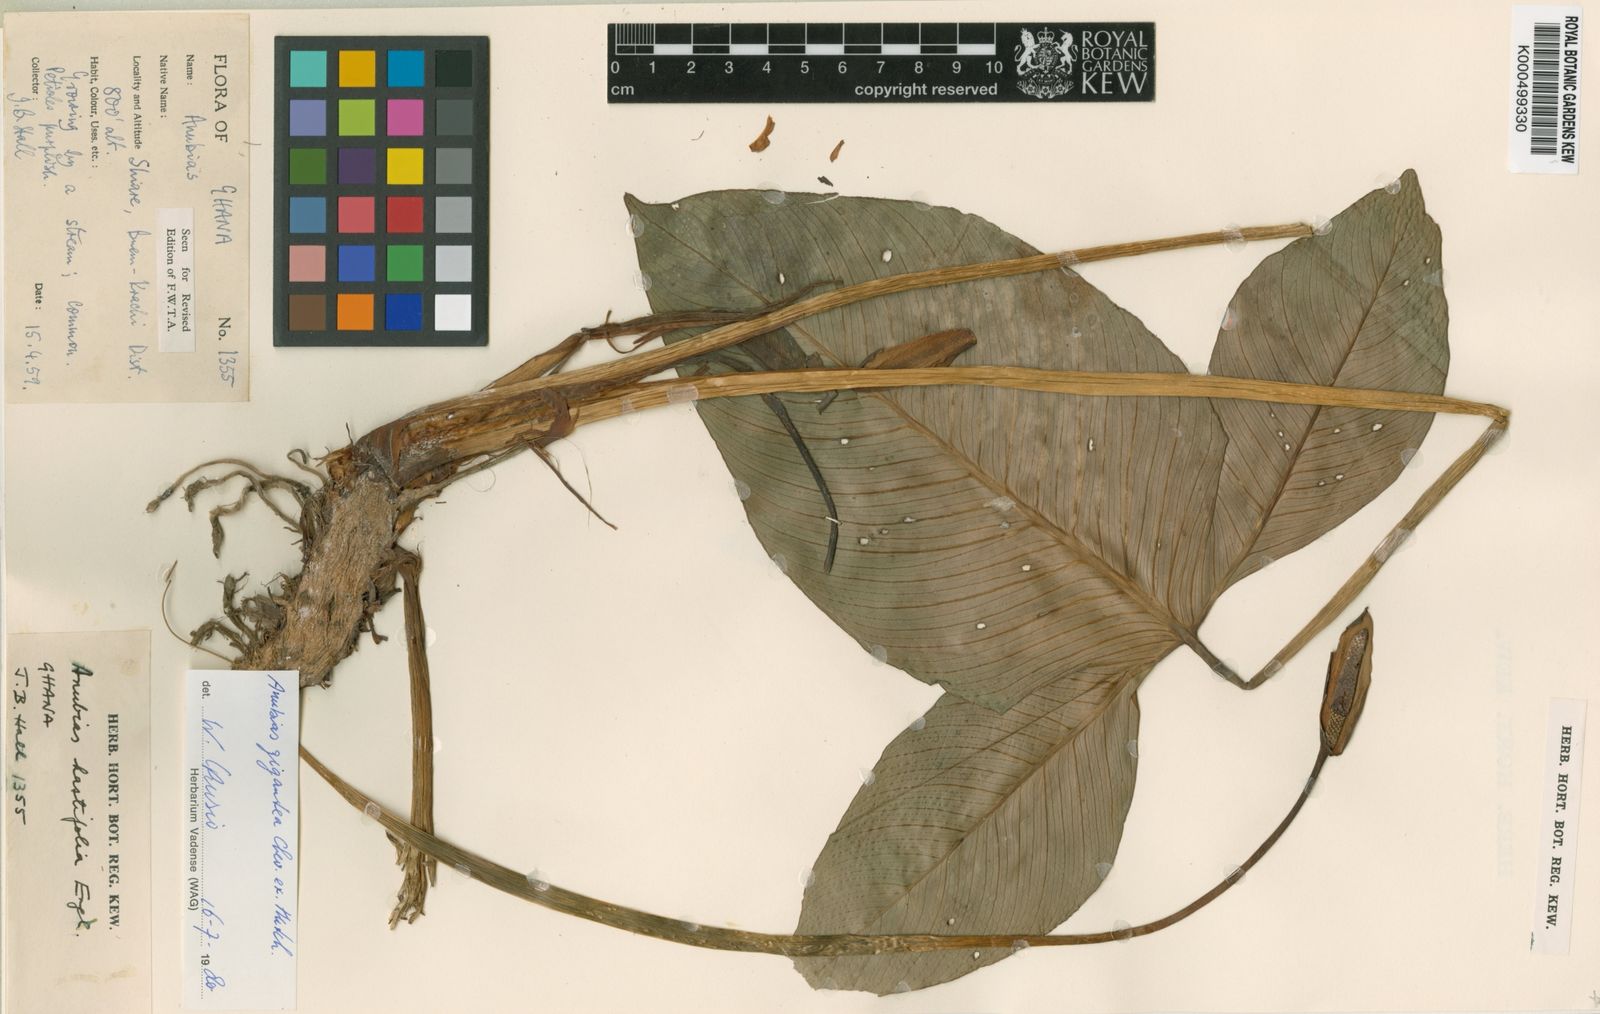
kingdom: Plantae
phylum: Tracheophyta
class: Liliopsida
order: Alismatales
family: Araceae
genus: Anubias
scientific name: Anubias
